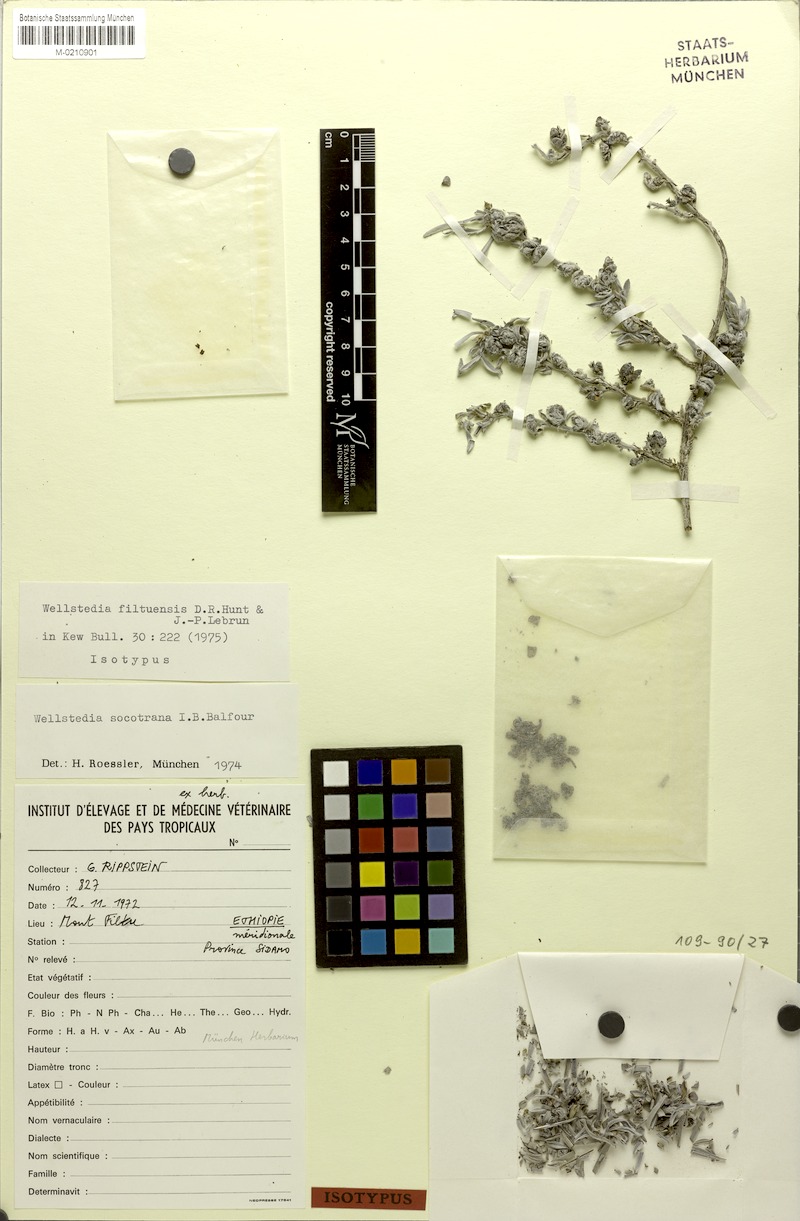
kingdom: Plantae
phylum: Tracheophyta
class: Magnoliopsida
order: Boraginales
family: Wellstediaceae
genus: Wellstedia
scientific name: Wellstedia filtuensis
